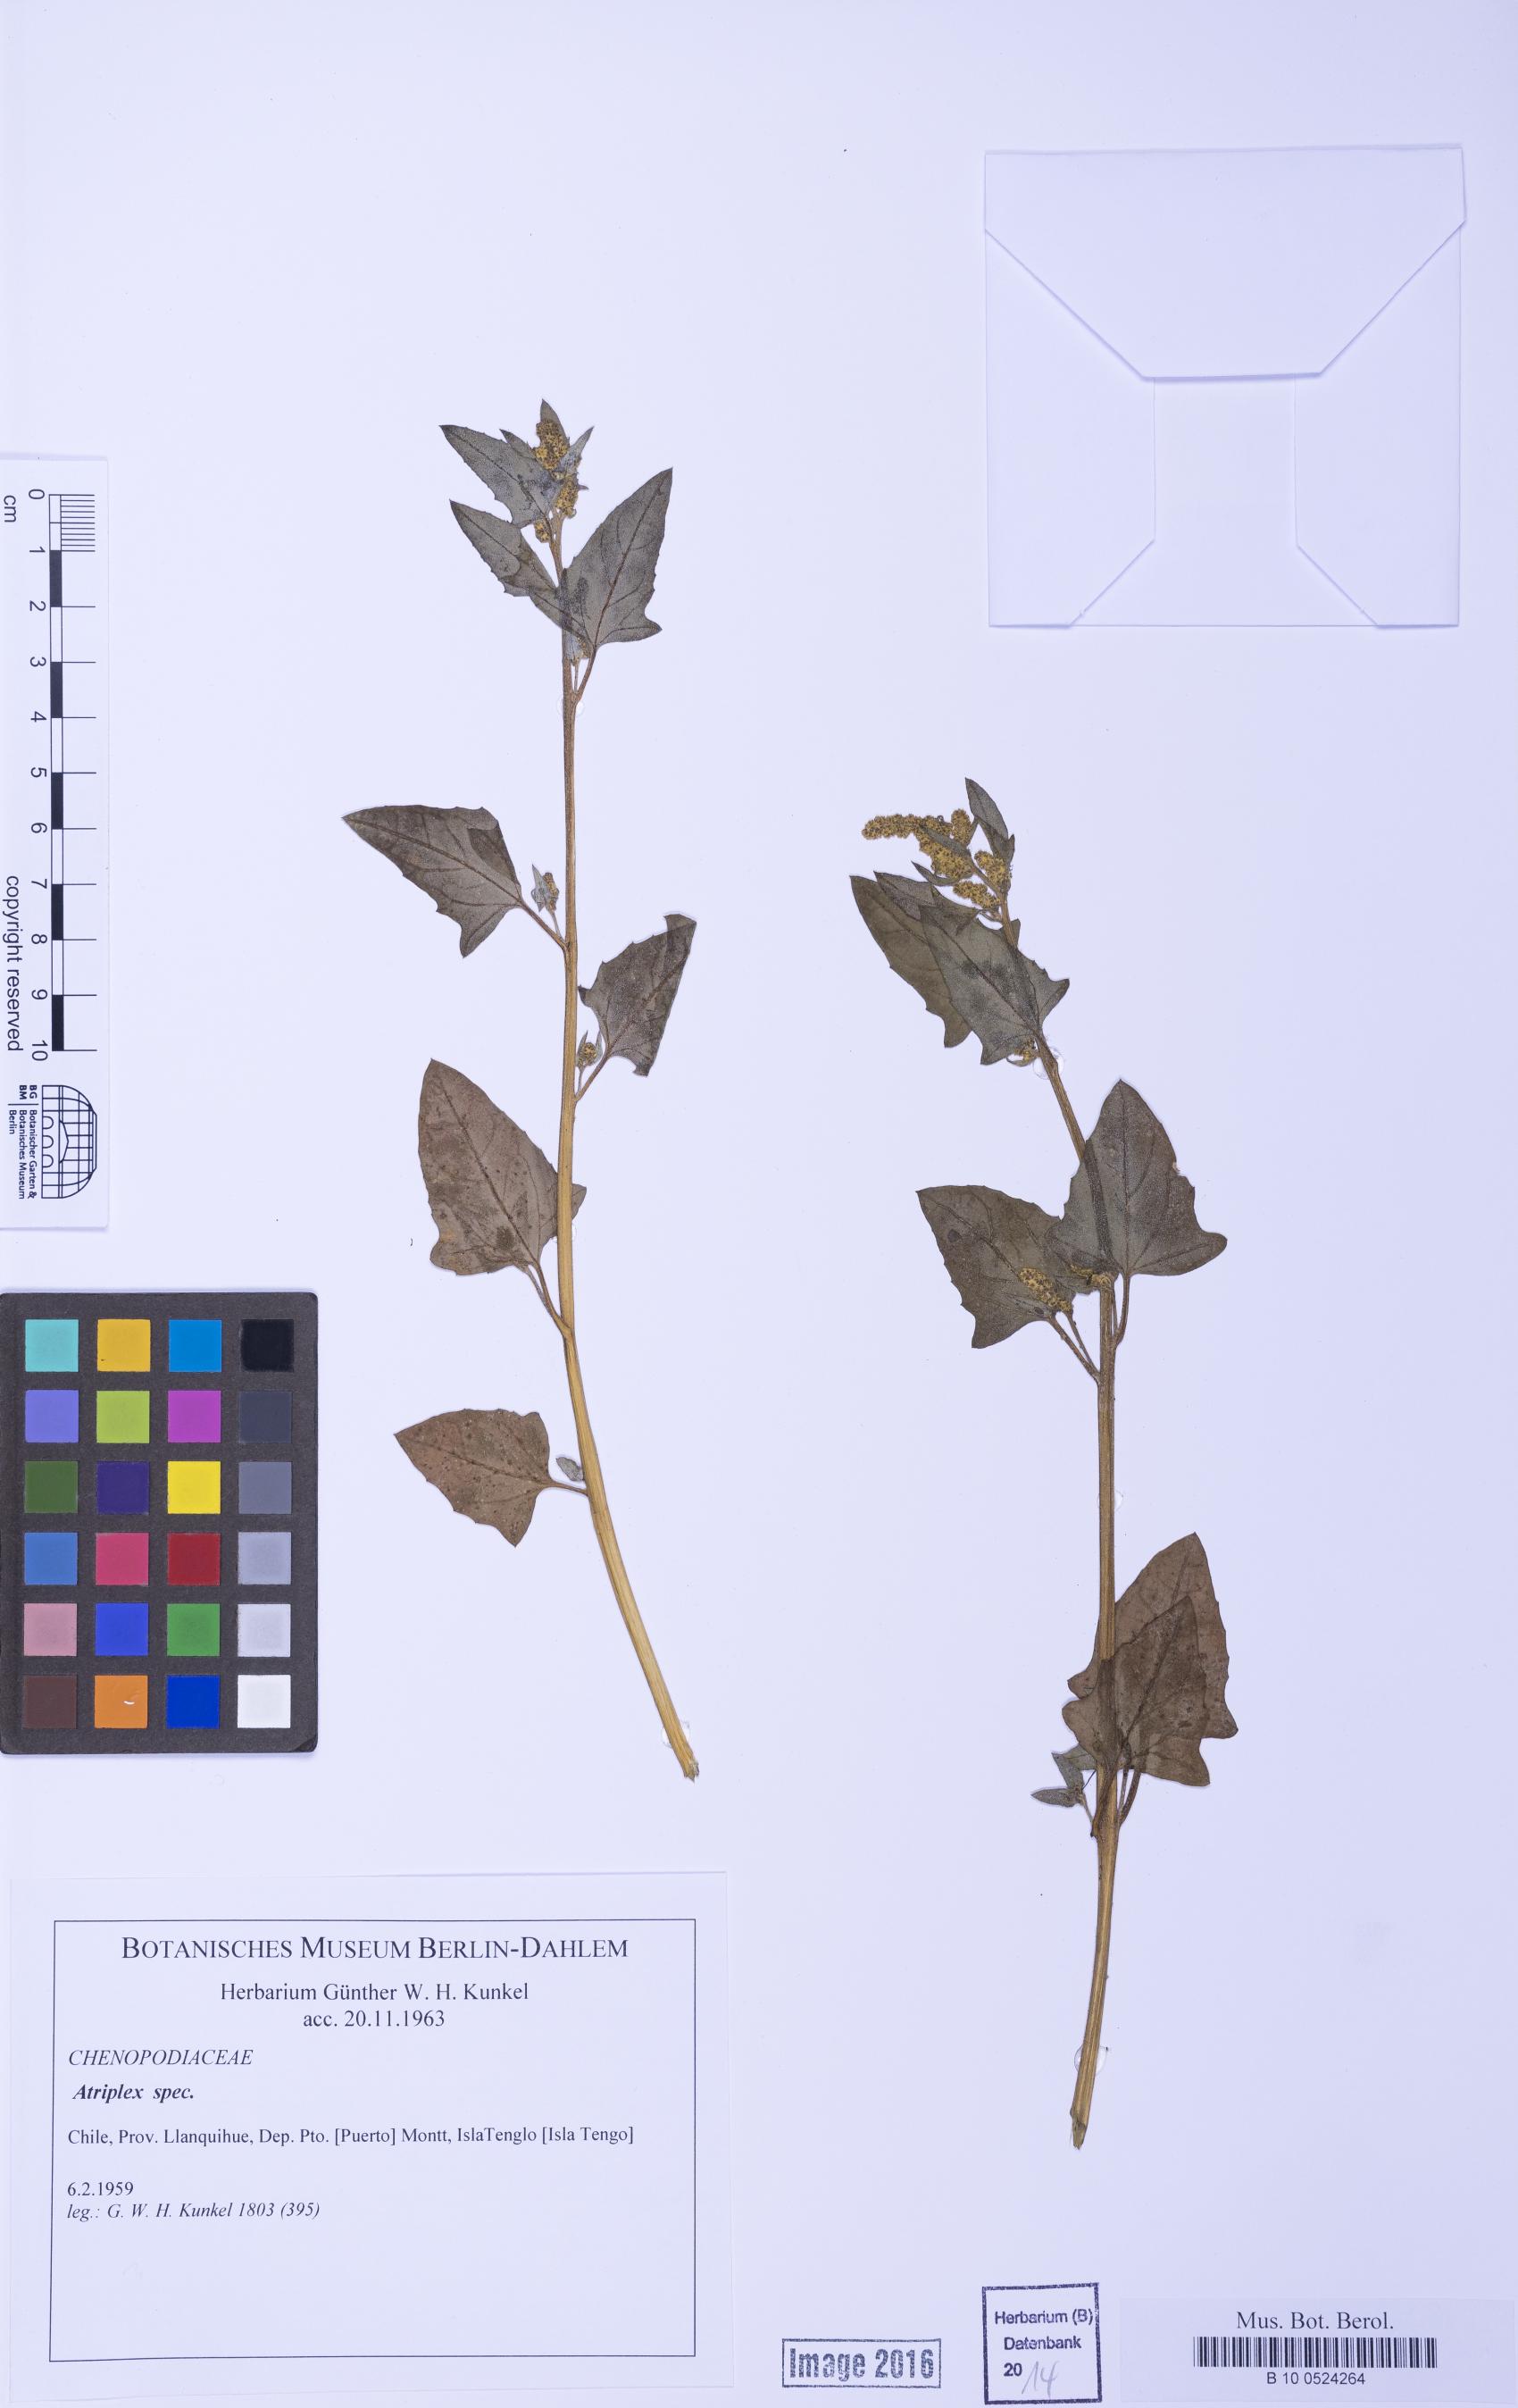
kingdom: Plantae
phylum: Tracheophyta
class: Magnoliopsida
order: Caryophyllales
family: Amaranthaceae
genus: Atriplex
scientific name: Atriplex
